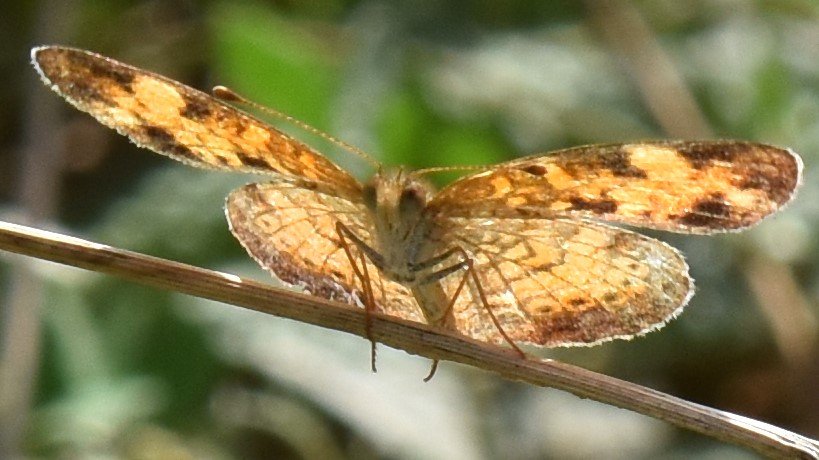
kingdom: Animalia
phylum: Arthropoda
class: Insecta
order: Lepidoptera
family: Nymphalidae
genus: Phyciodes
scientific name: Phyciodes
